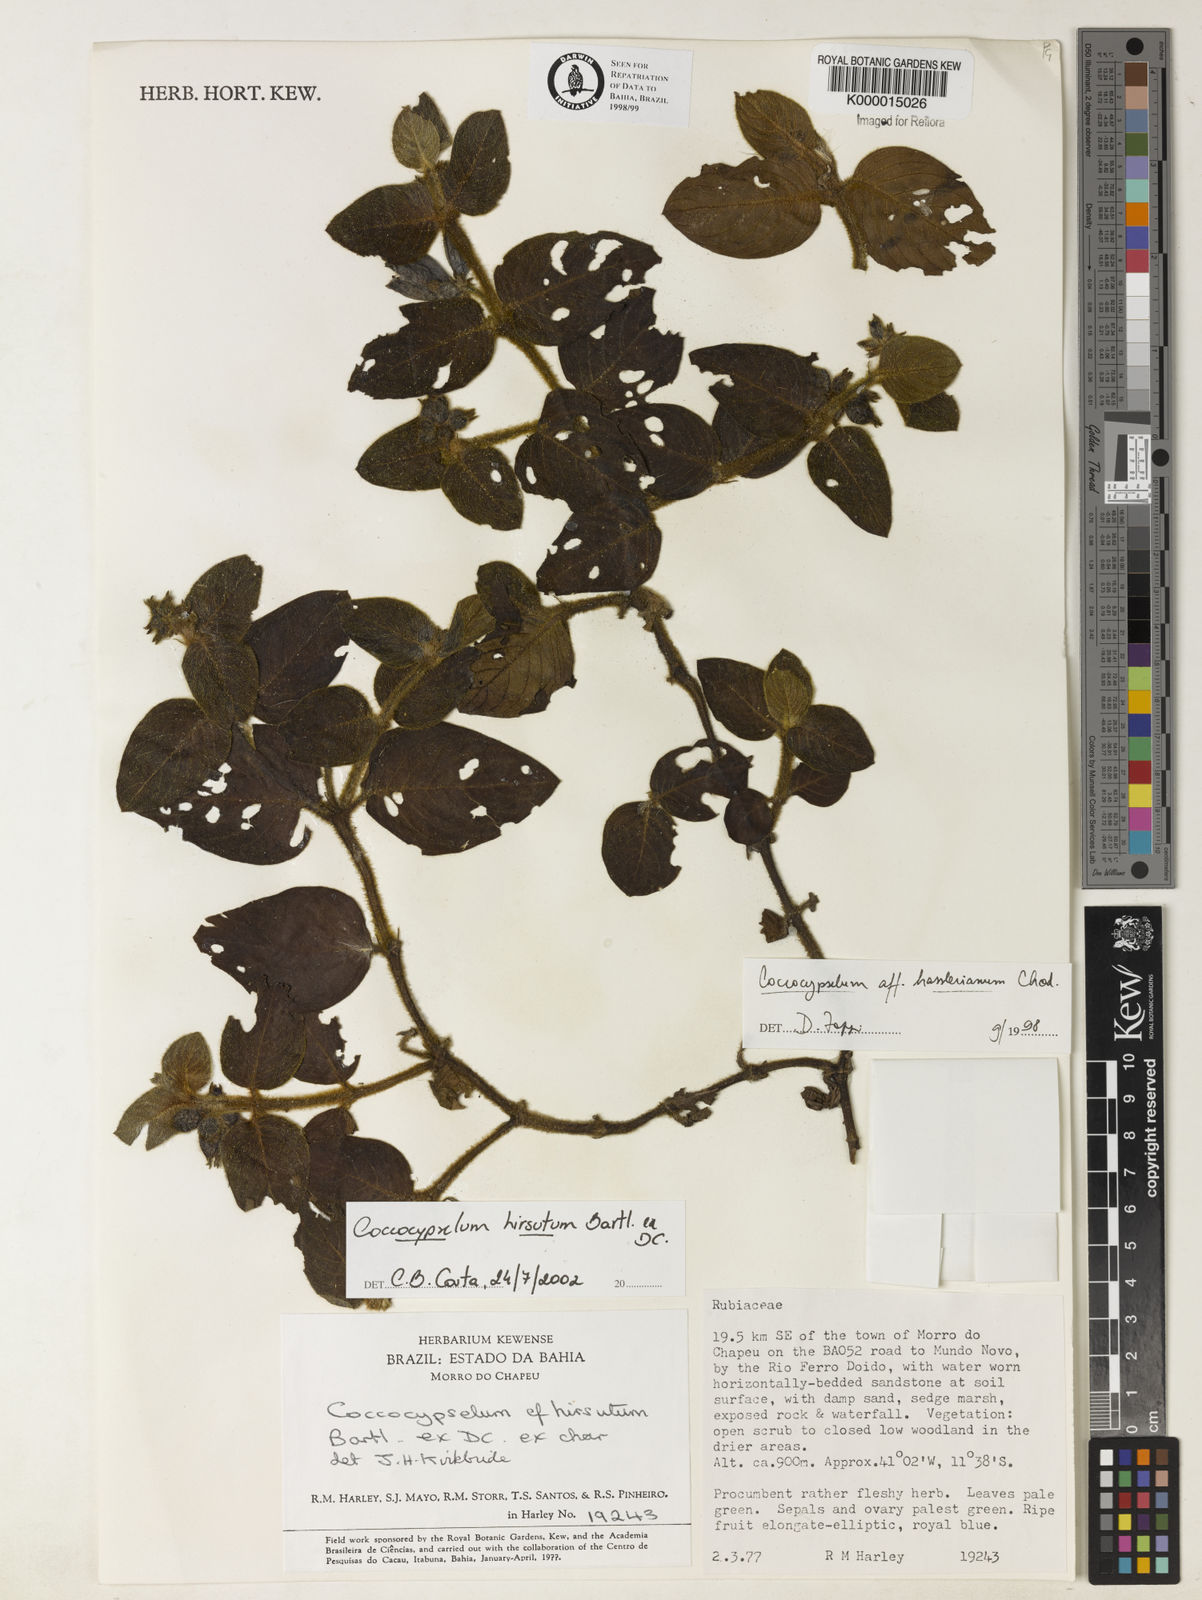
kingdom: Plantae
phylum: Tracheophyta
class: Magnoliopsida
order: Gentianales
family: Rubiaceae
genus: Coccocypselum
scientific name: Coccocypselum hirsutum
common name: Yerba de guava
